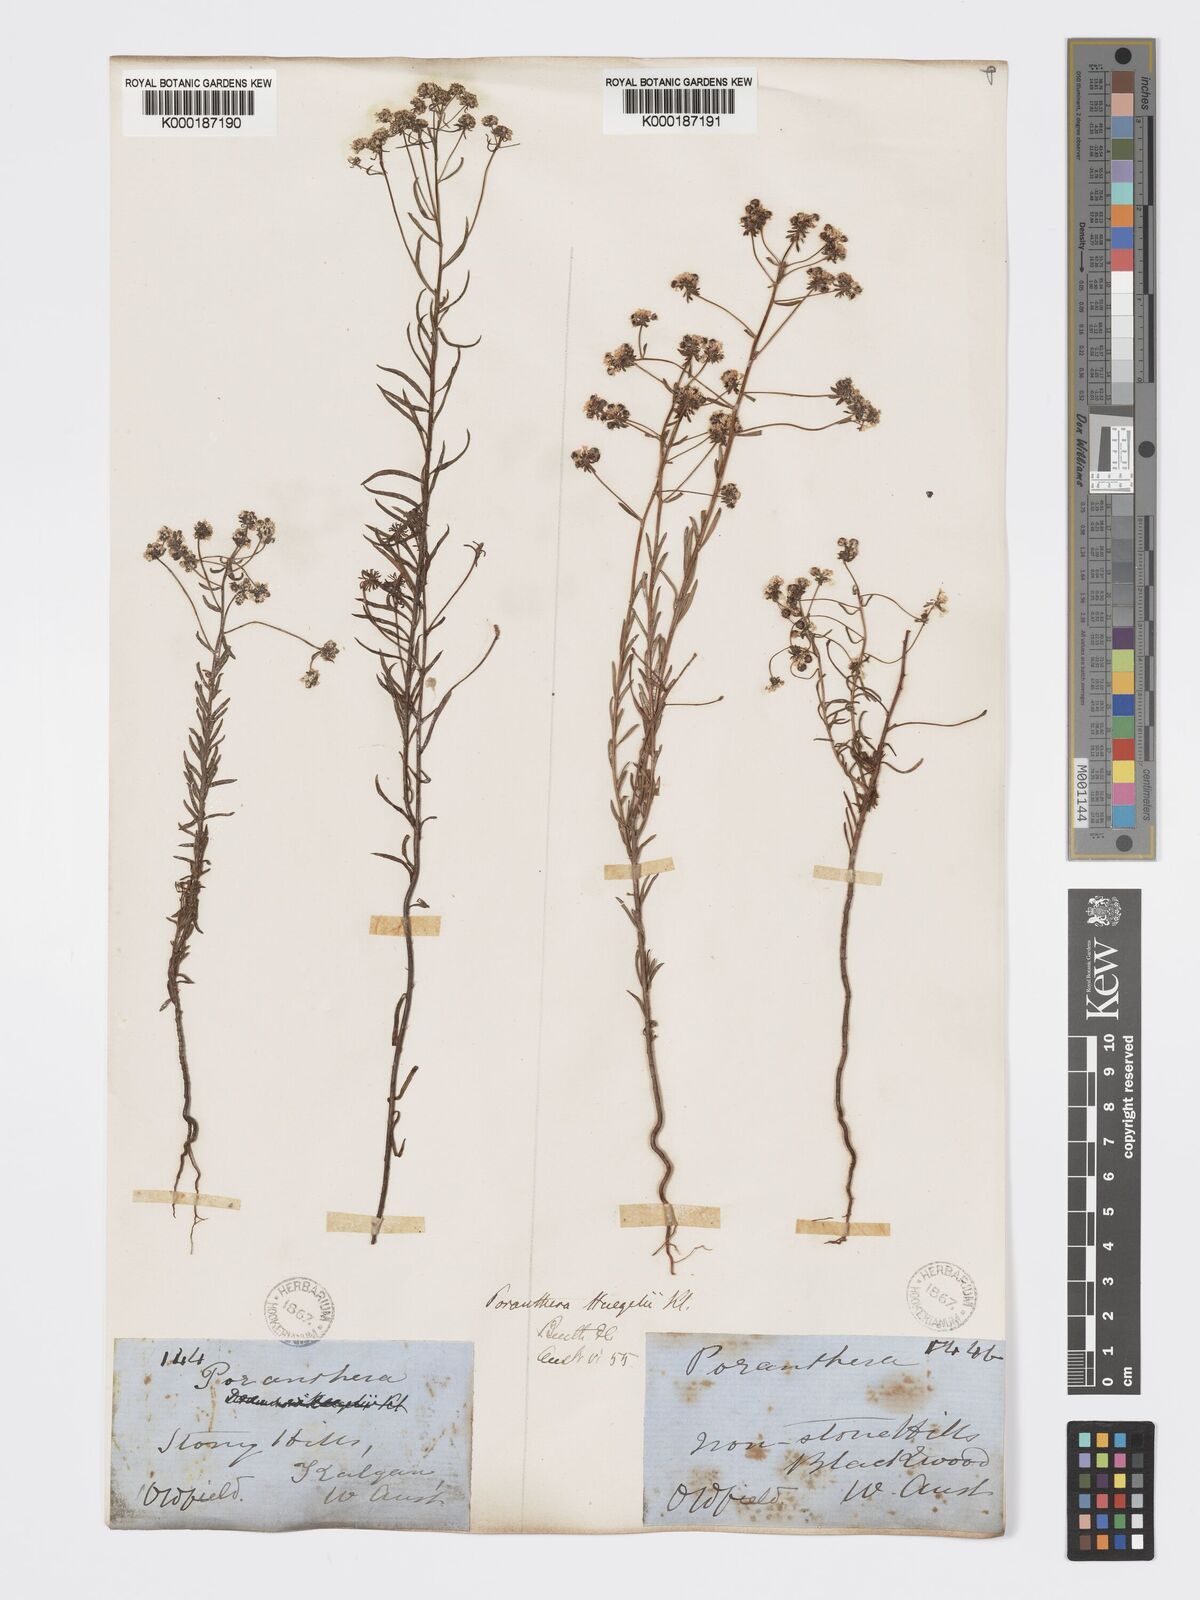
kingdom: Plantae
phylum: Tracheophyta
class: Magnoliopsida
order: Malpighiales
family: Phyllanthaceae
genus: Poranthera
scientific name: Poranthera huegelii
